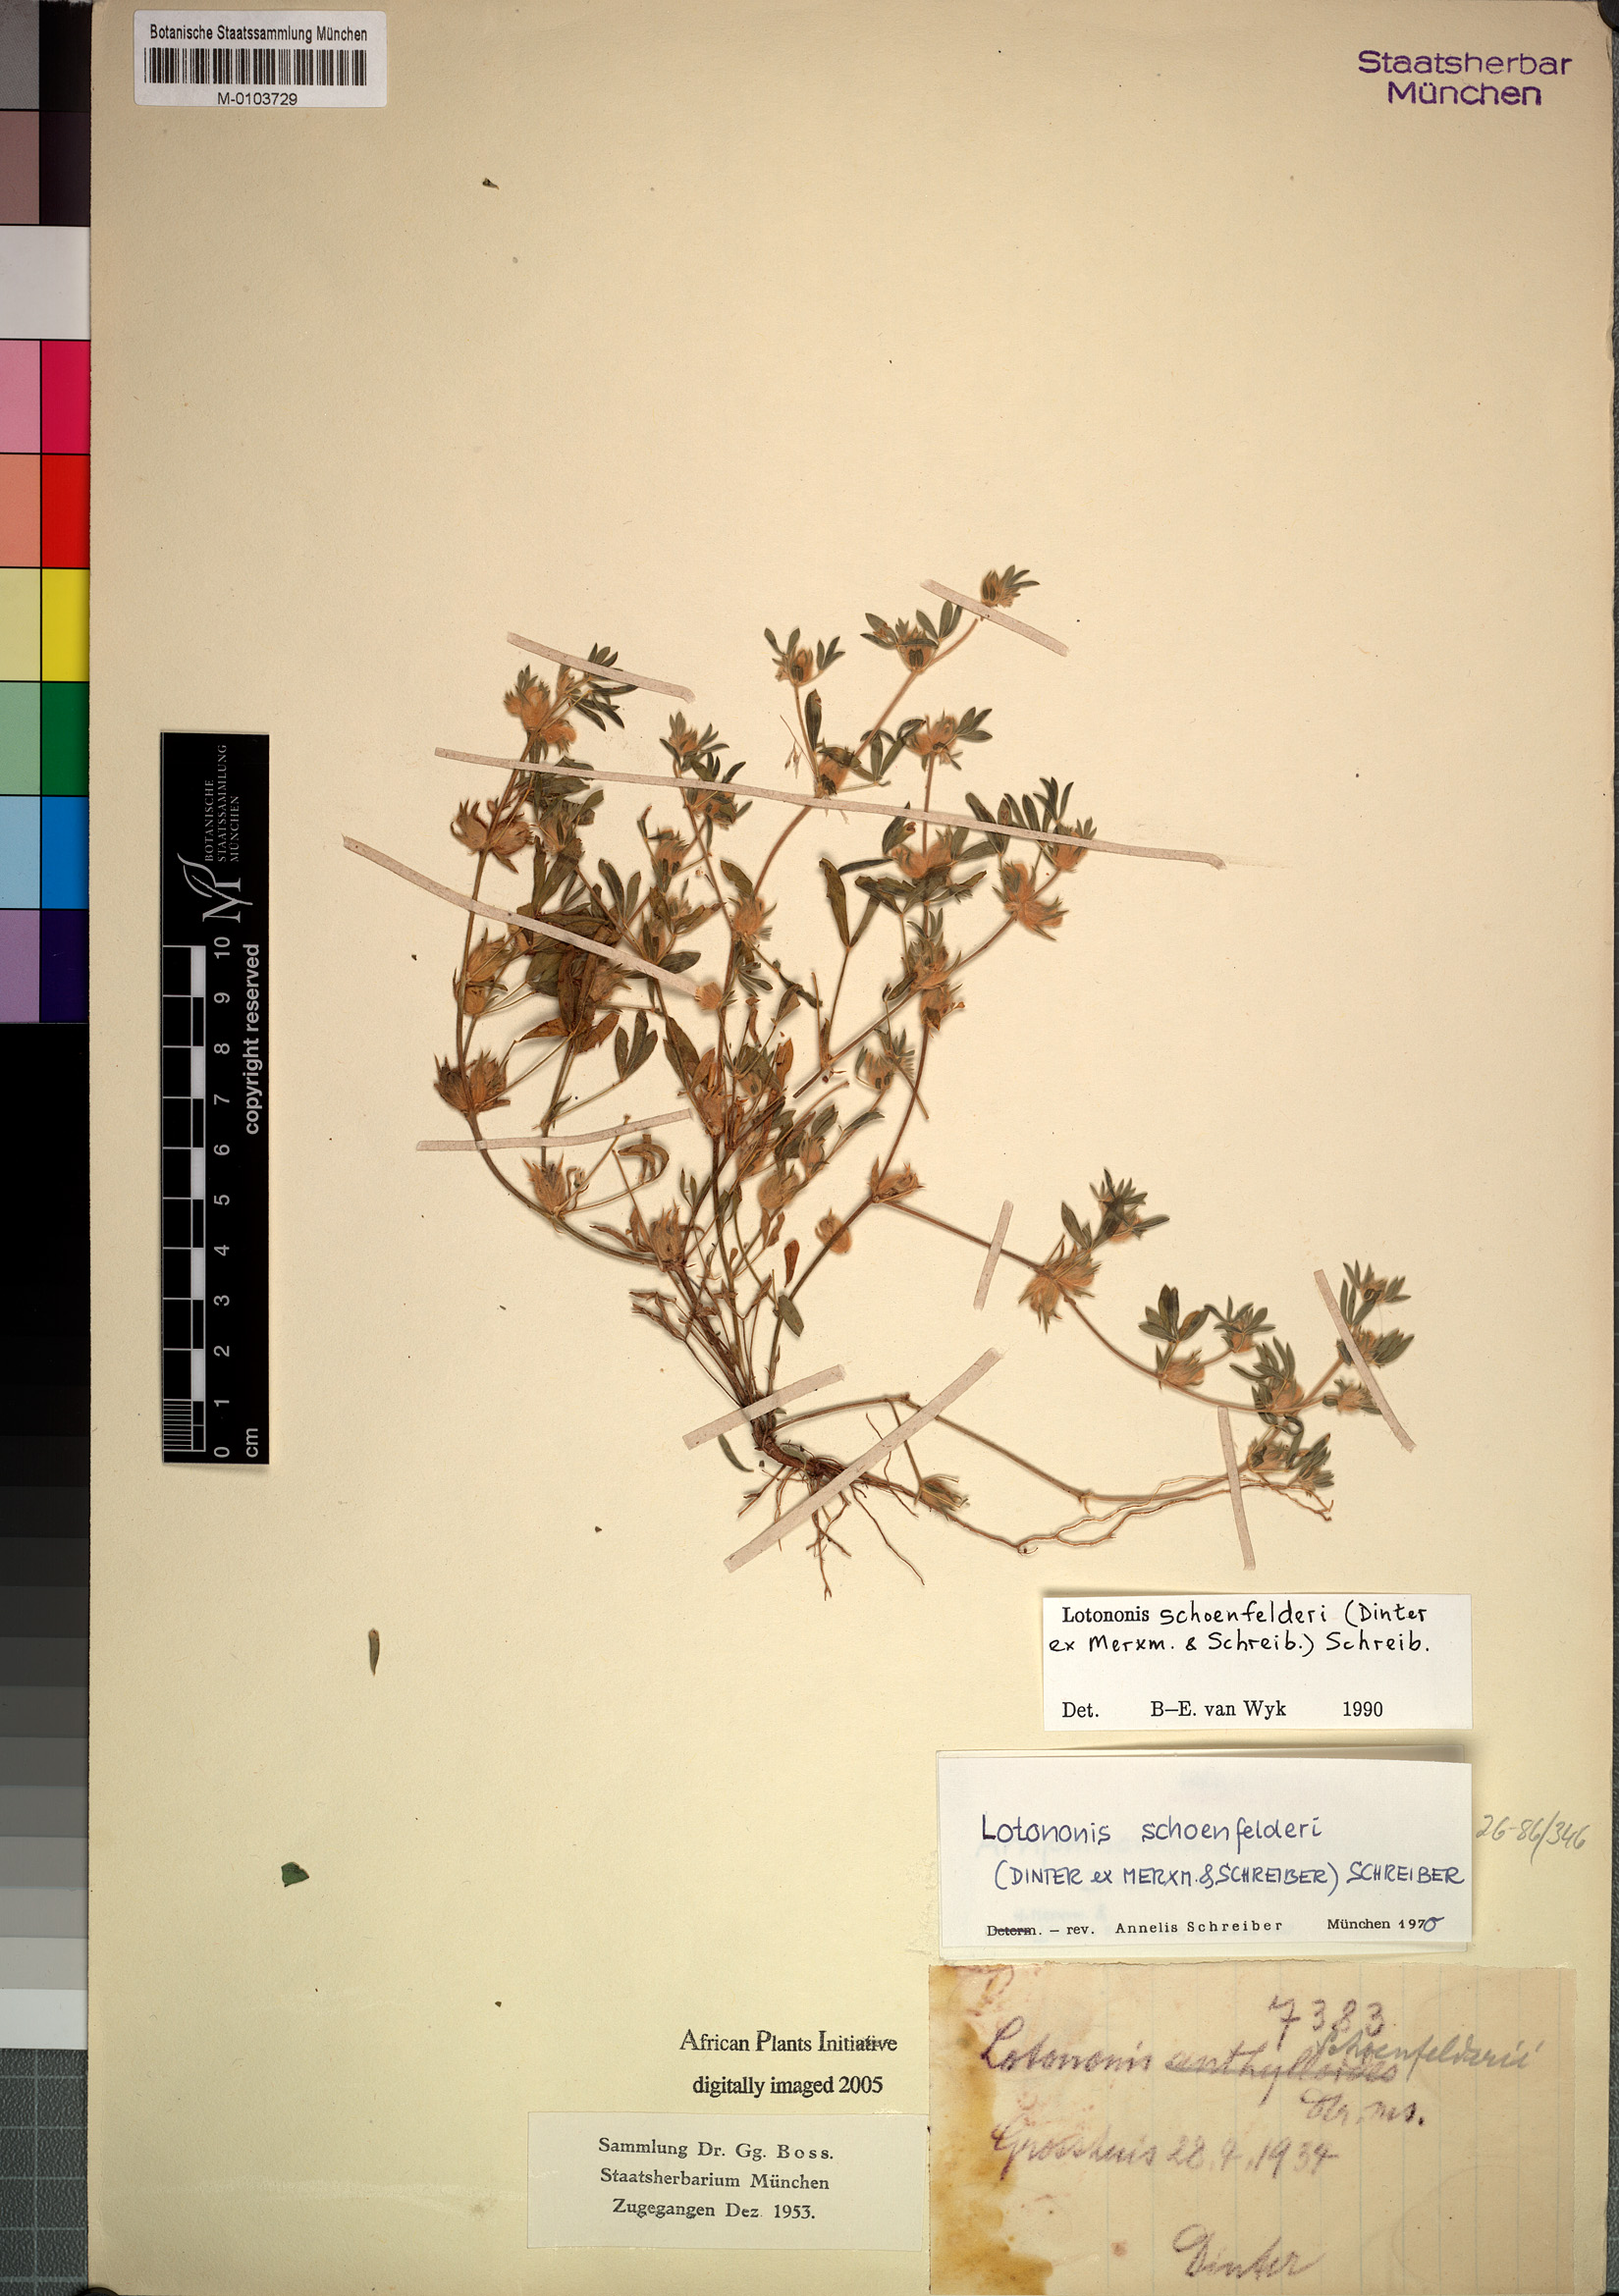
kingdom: Plantae
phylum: Tracheophyta
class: Magnoliopsida
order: Fabales
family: Fabaceae
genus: Leobordea
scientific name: Leobordea schoenfelderi
